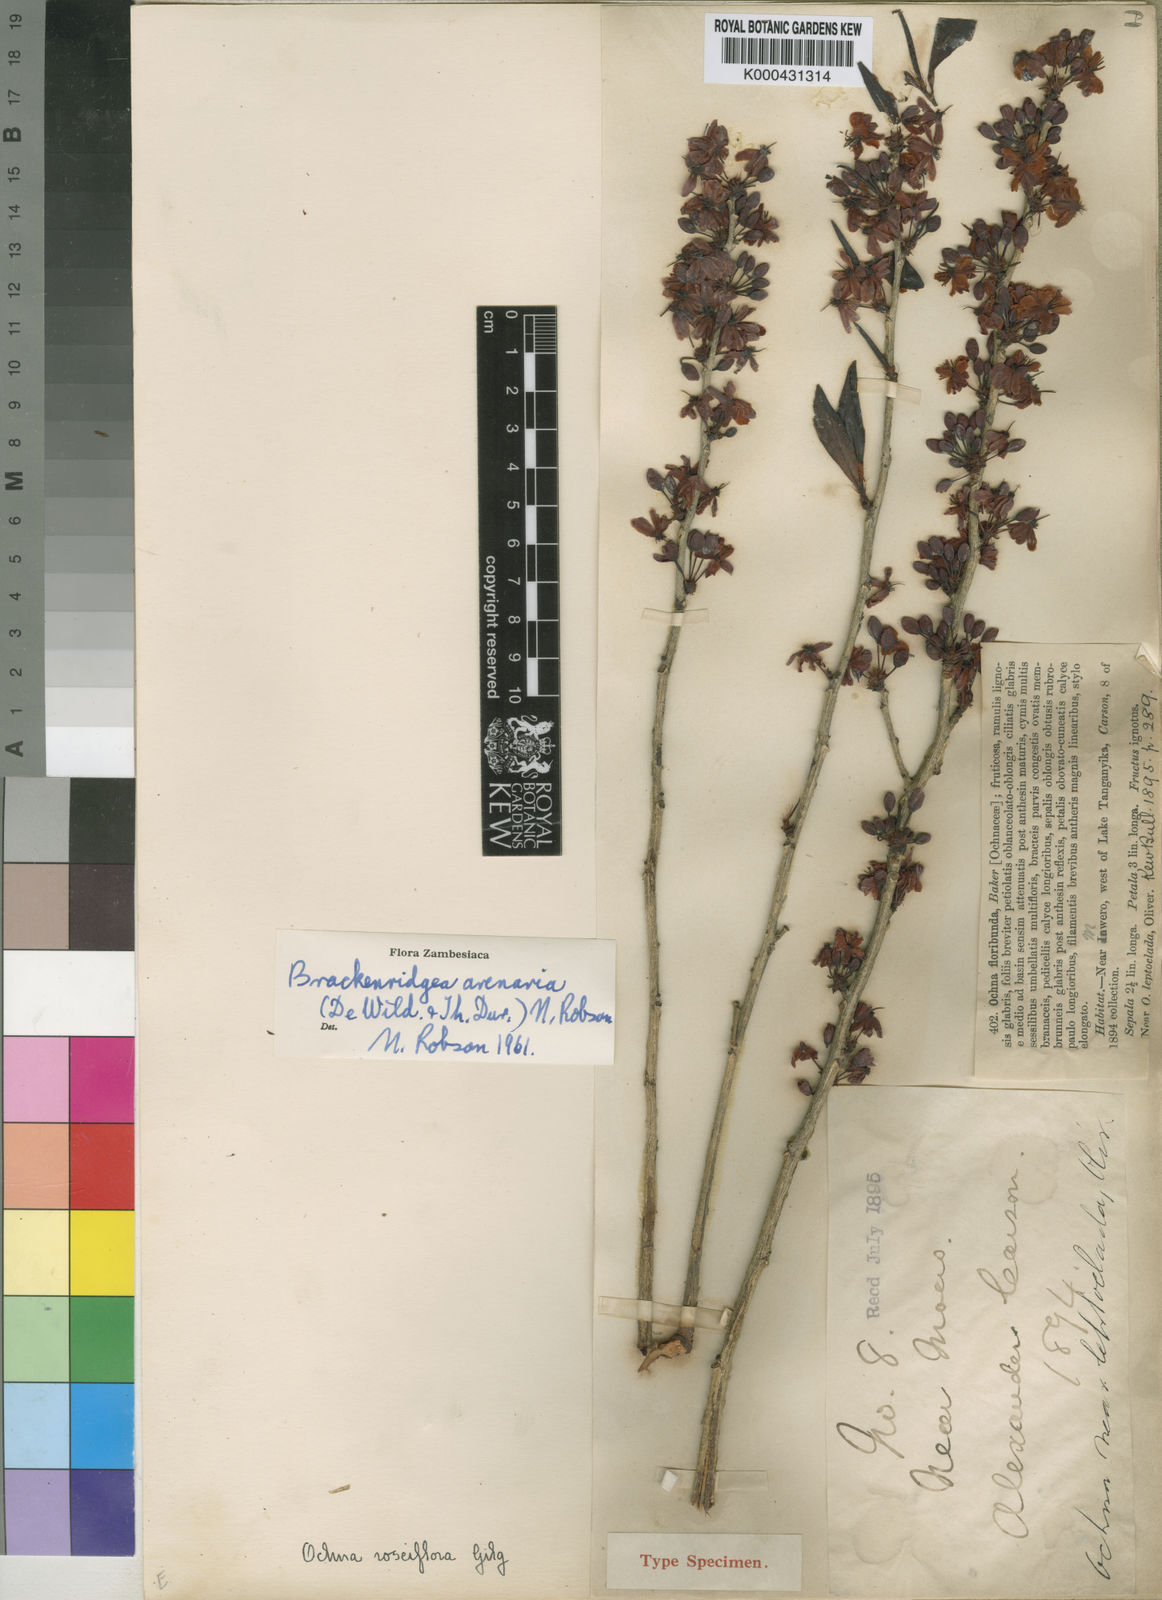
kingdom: Plantae
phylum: Tracheophyta
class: Magnoliopsida
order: Malpighiales
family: Ochnaceae
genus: Ochna
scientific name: Ochna arenaria
